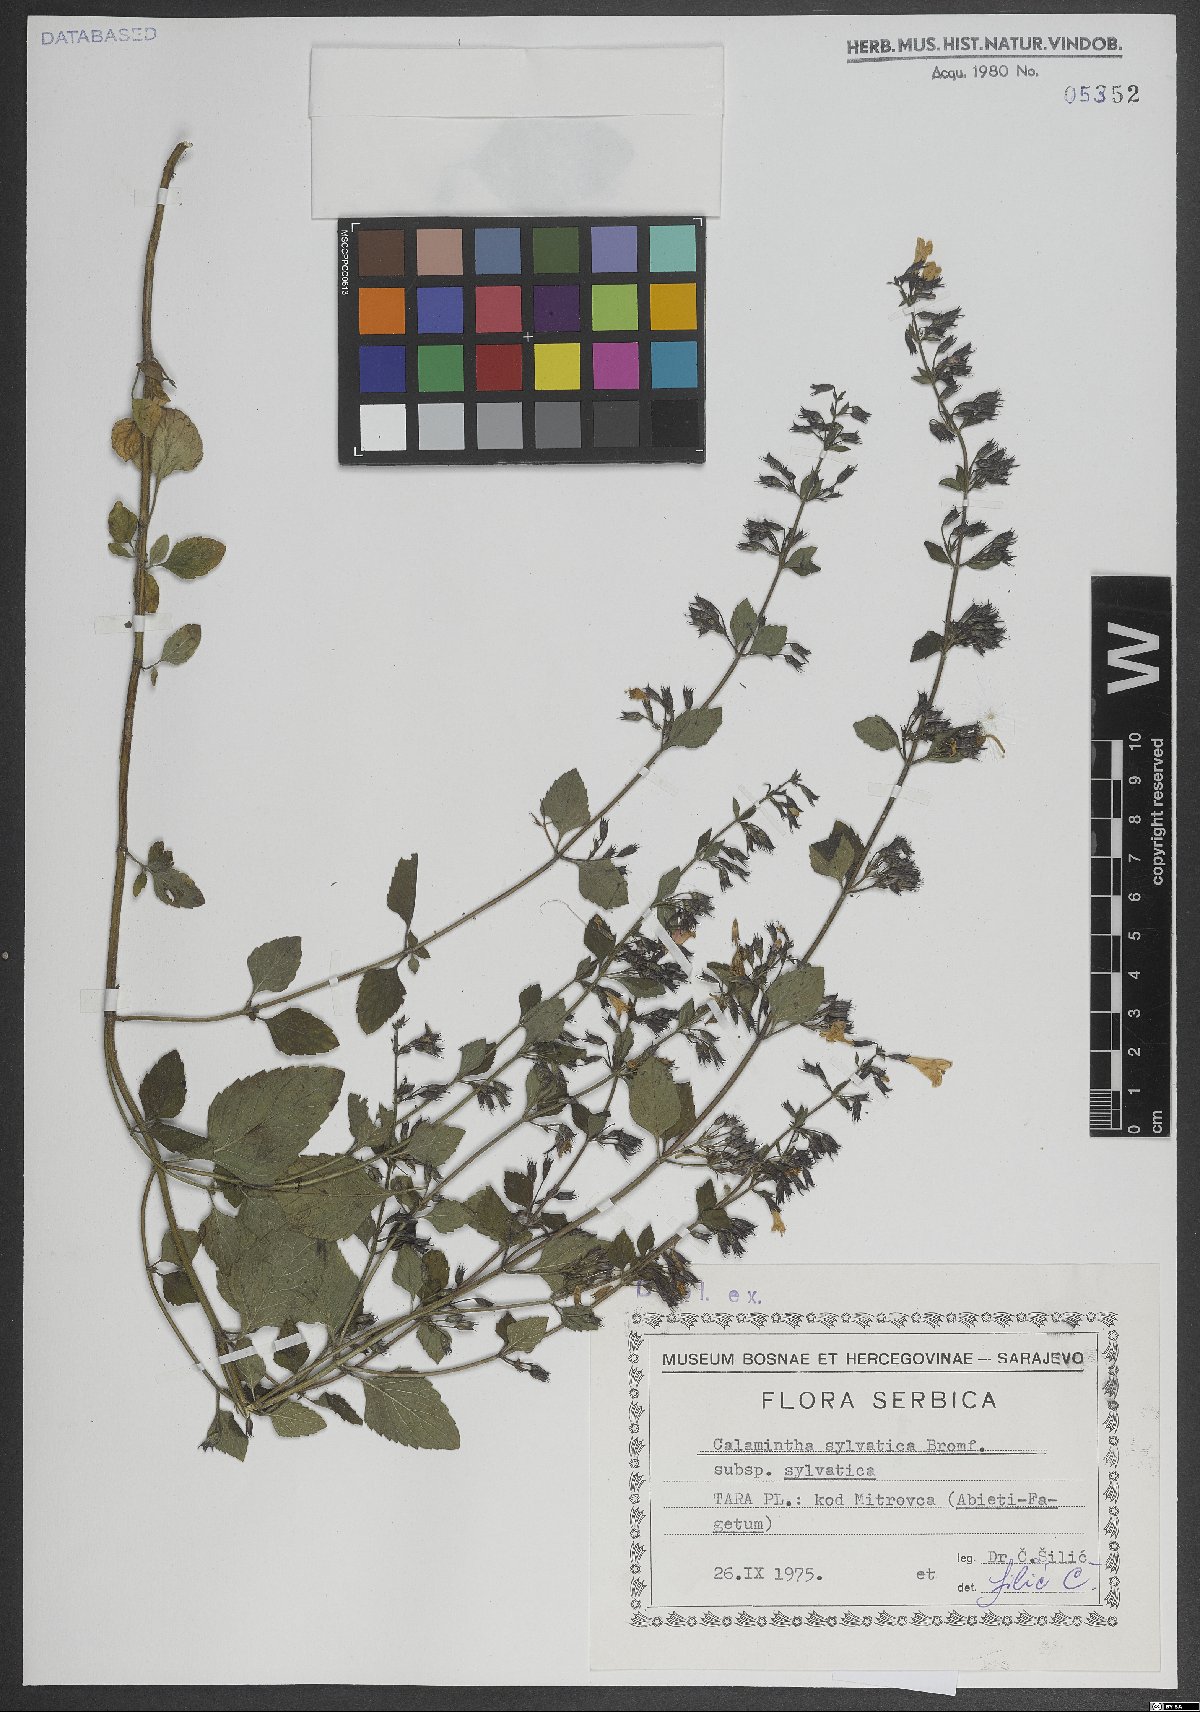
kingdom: Plantae
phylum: Tracheophyta
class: Magnoliopsida
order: Lamiales
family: Lamiaceae
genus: Clinopodium
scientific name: Clinopodium menthifolium
